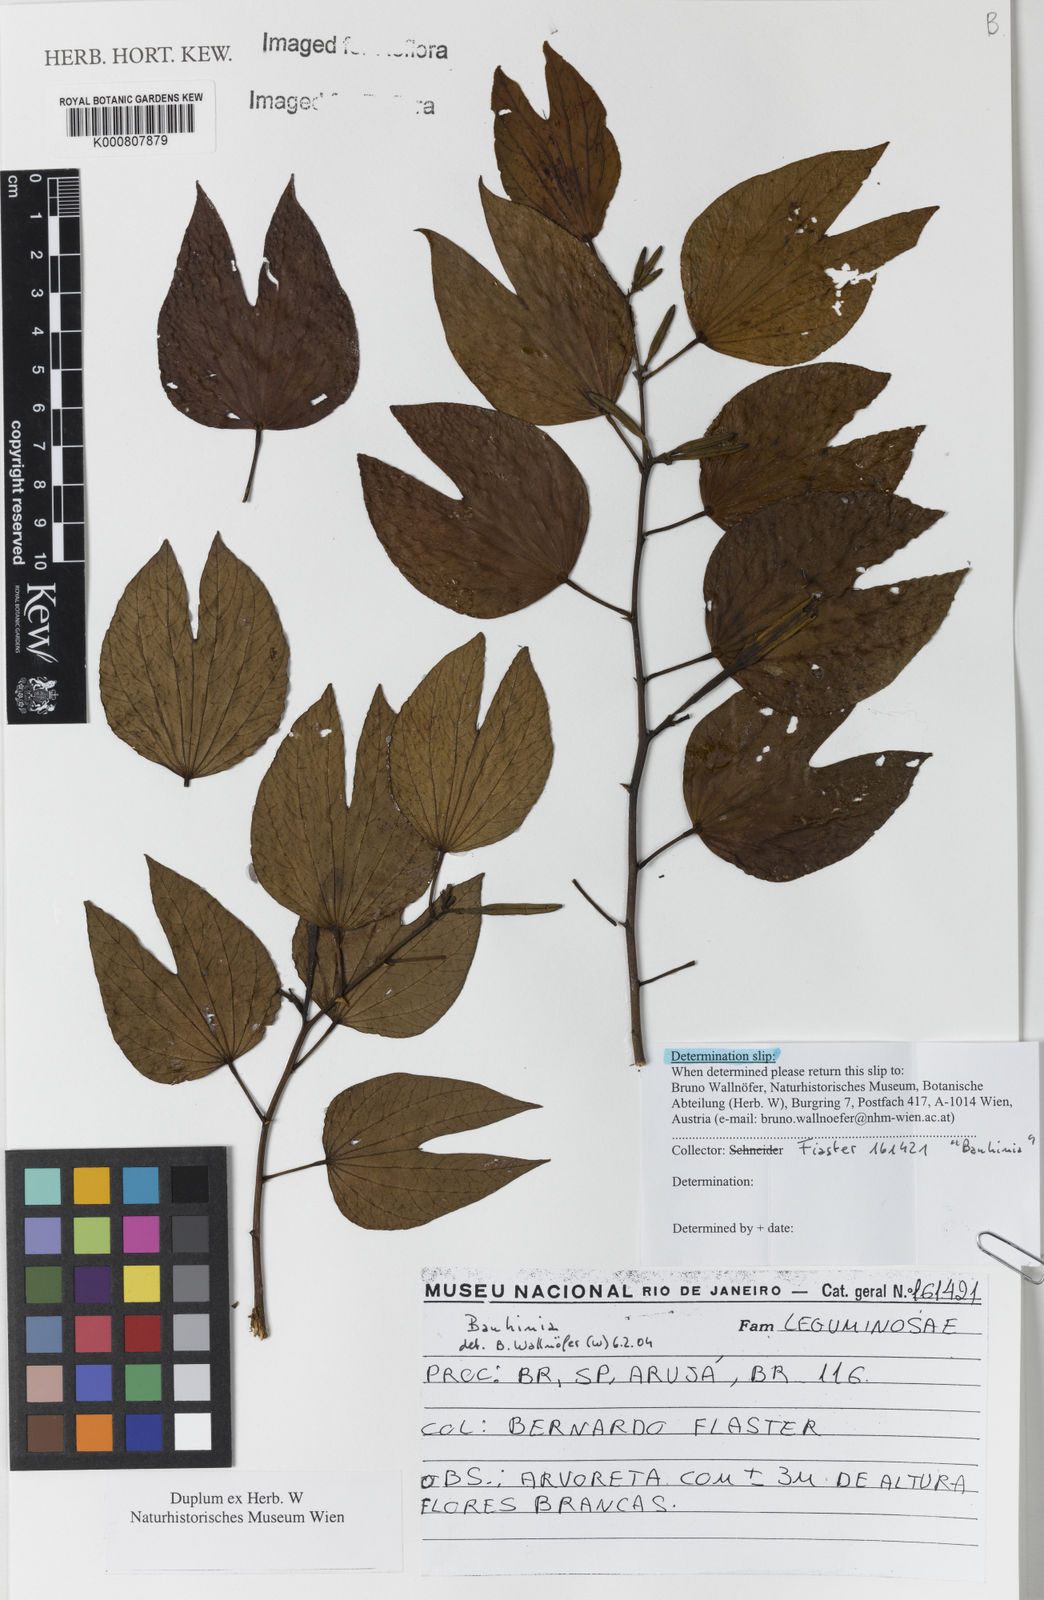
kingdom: Plantae
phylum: Tracheophyta
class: Magnoliopsida
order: Fabales
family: Fabaceae
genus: Bauhinia
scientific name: Bauhinia
